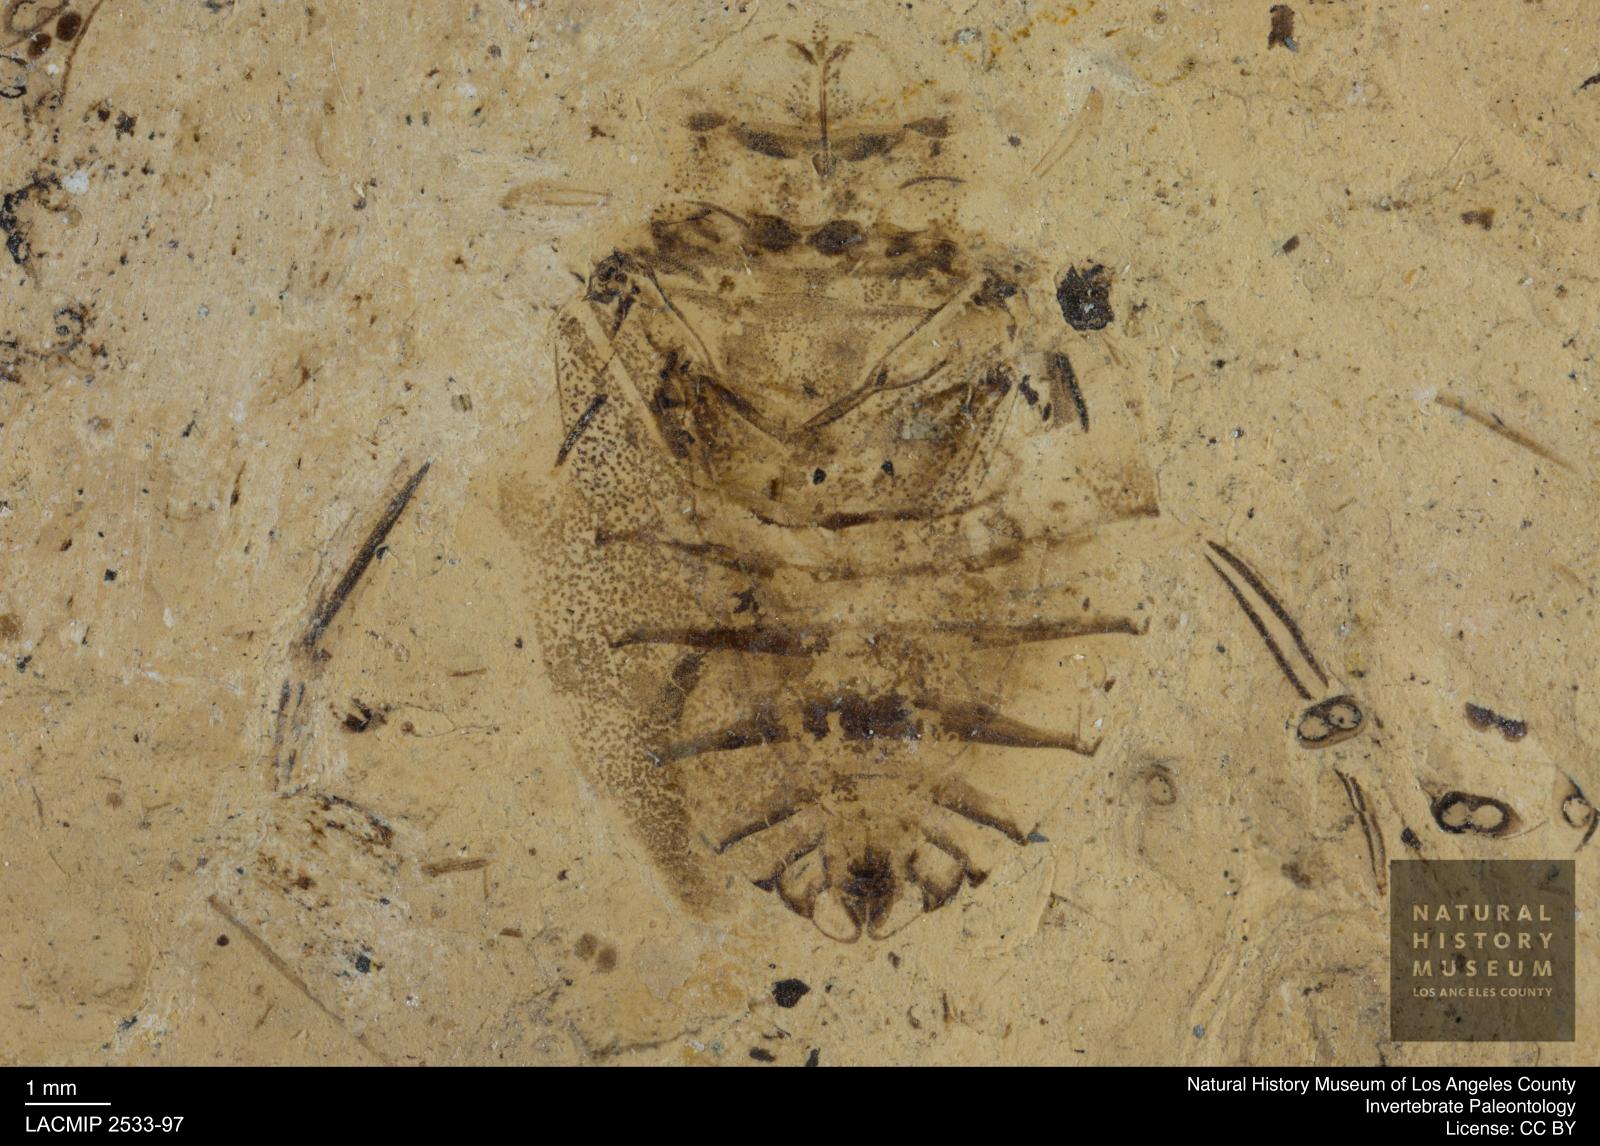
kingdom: Animalia
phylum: Arthropoda
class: Insecta
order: Hemiptera
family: Naucoridae
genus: Naucoris
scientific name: Naucoris rottensis
